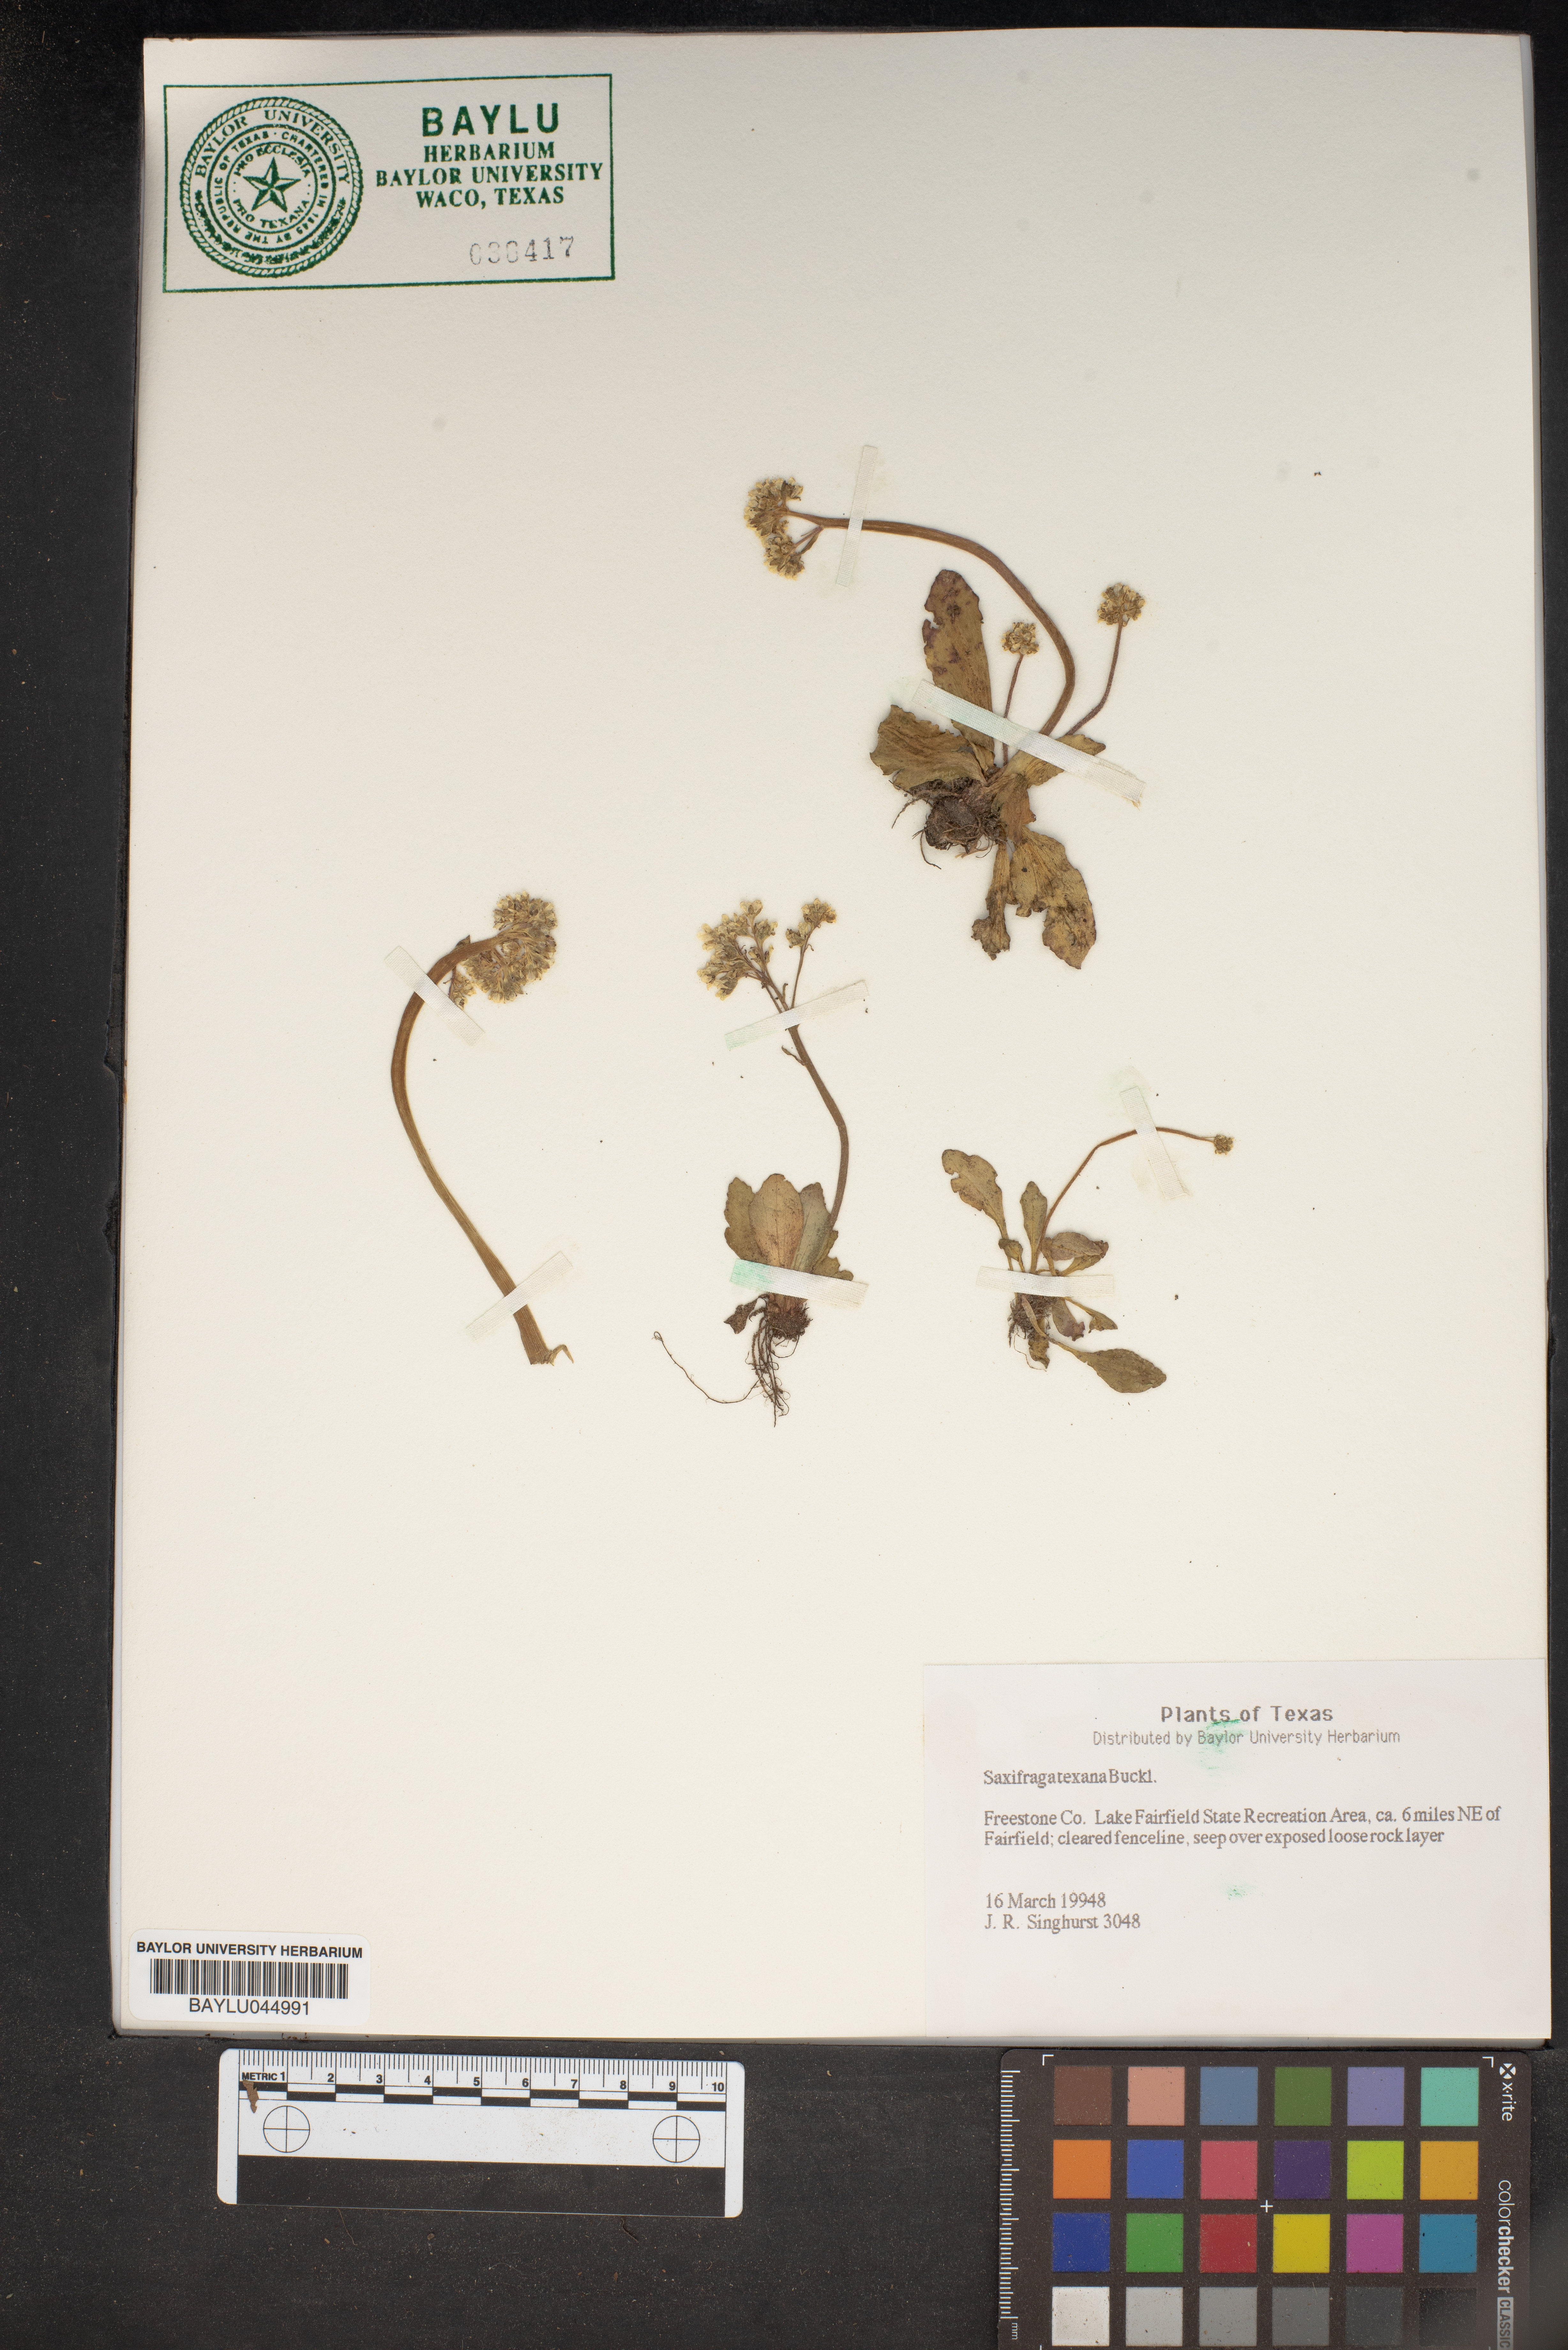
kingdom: Plantae
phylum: Tracheophyta
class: Magnoliopsida
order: Saxifragales
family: Saxifragaceae
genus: Micranthes
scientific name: Micranthes texana
